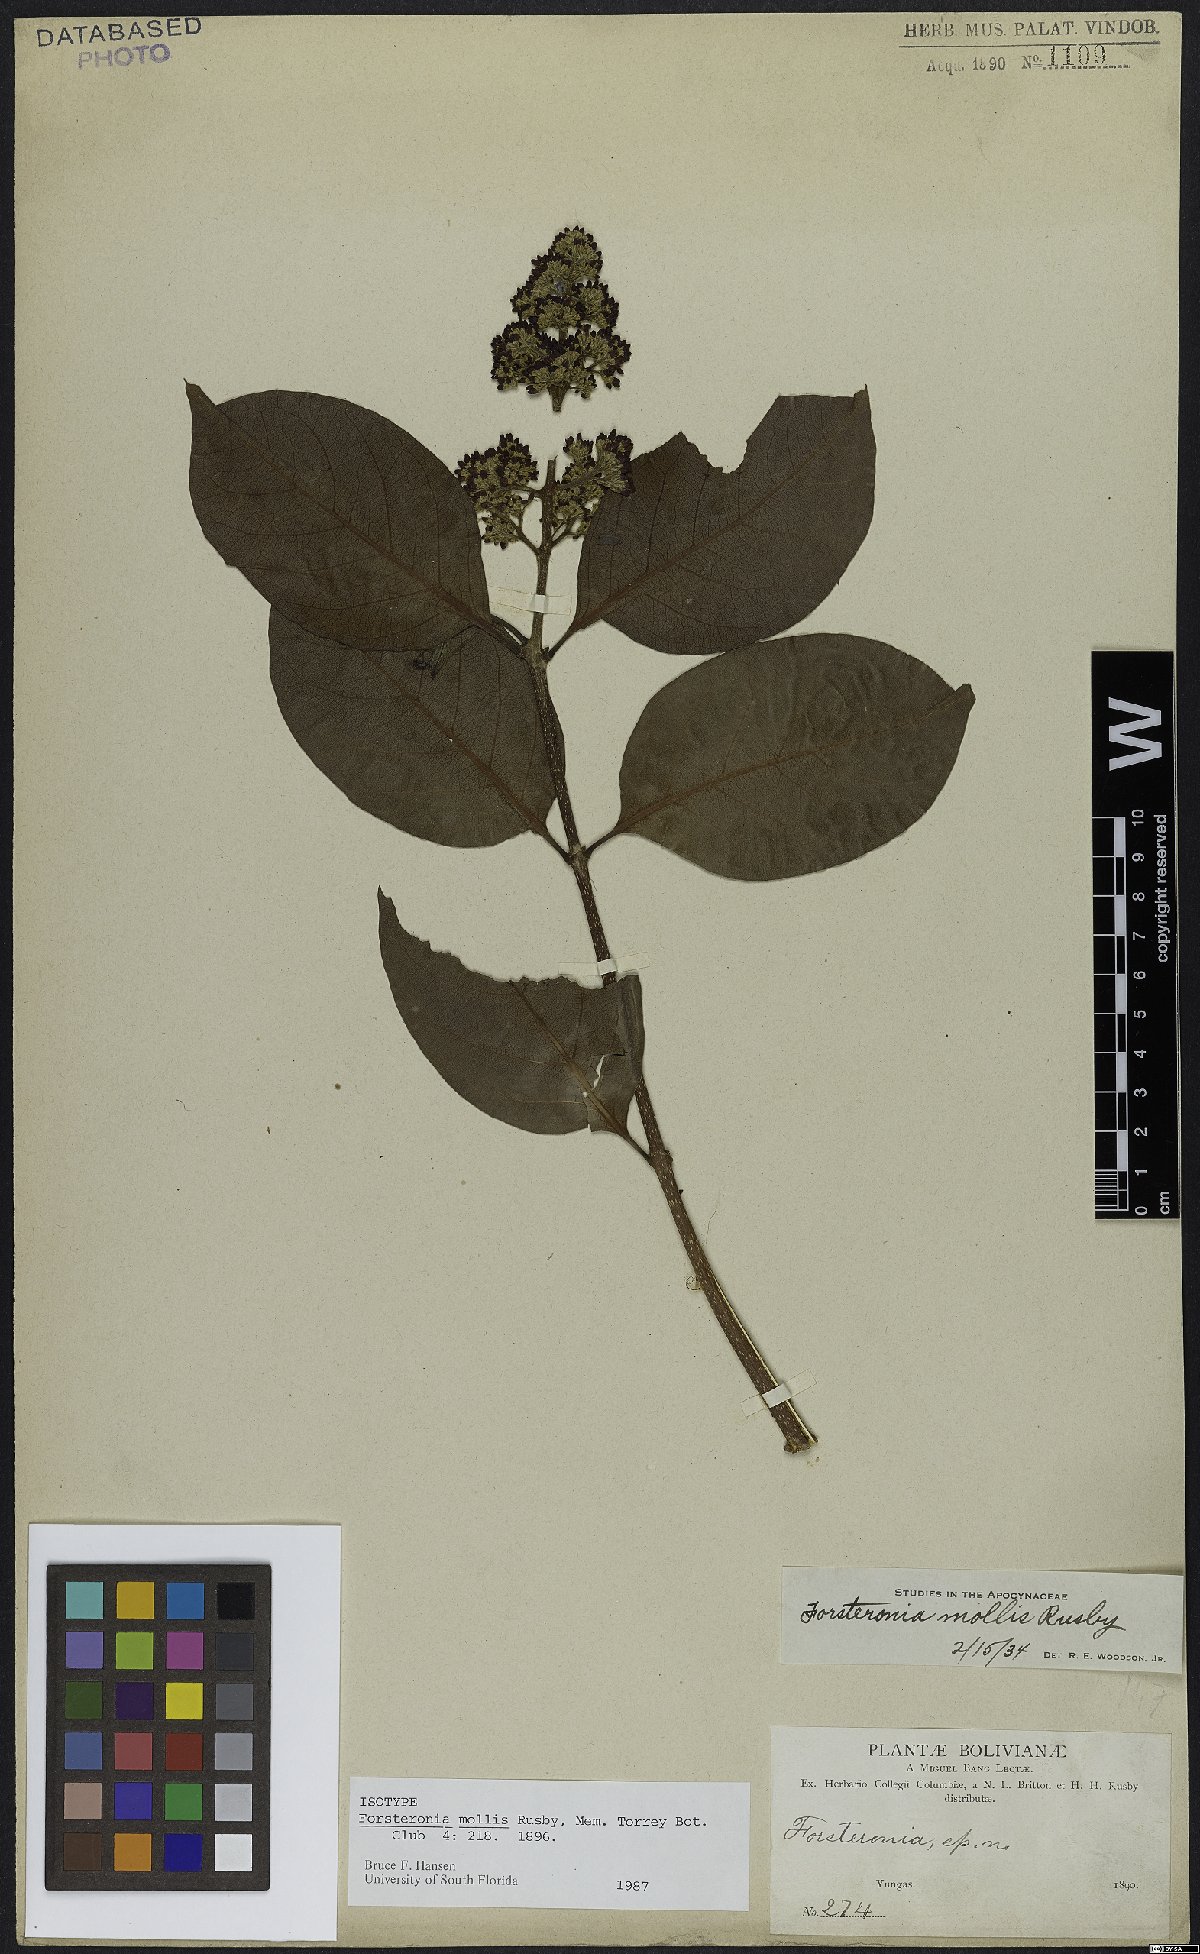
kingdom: Plantae
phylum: Tracheophyta
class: Magnoliopsida
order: Gentianales
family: Apocynaceae
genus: Forsteronia
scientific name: Forsteronia mollis
